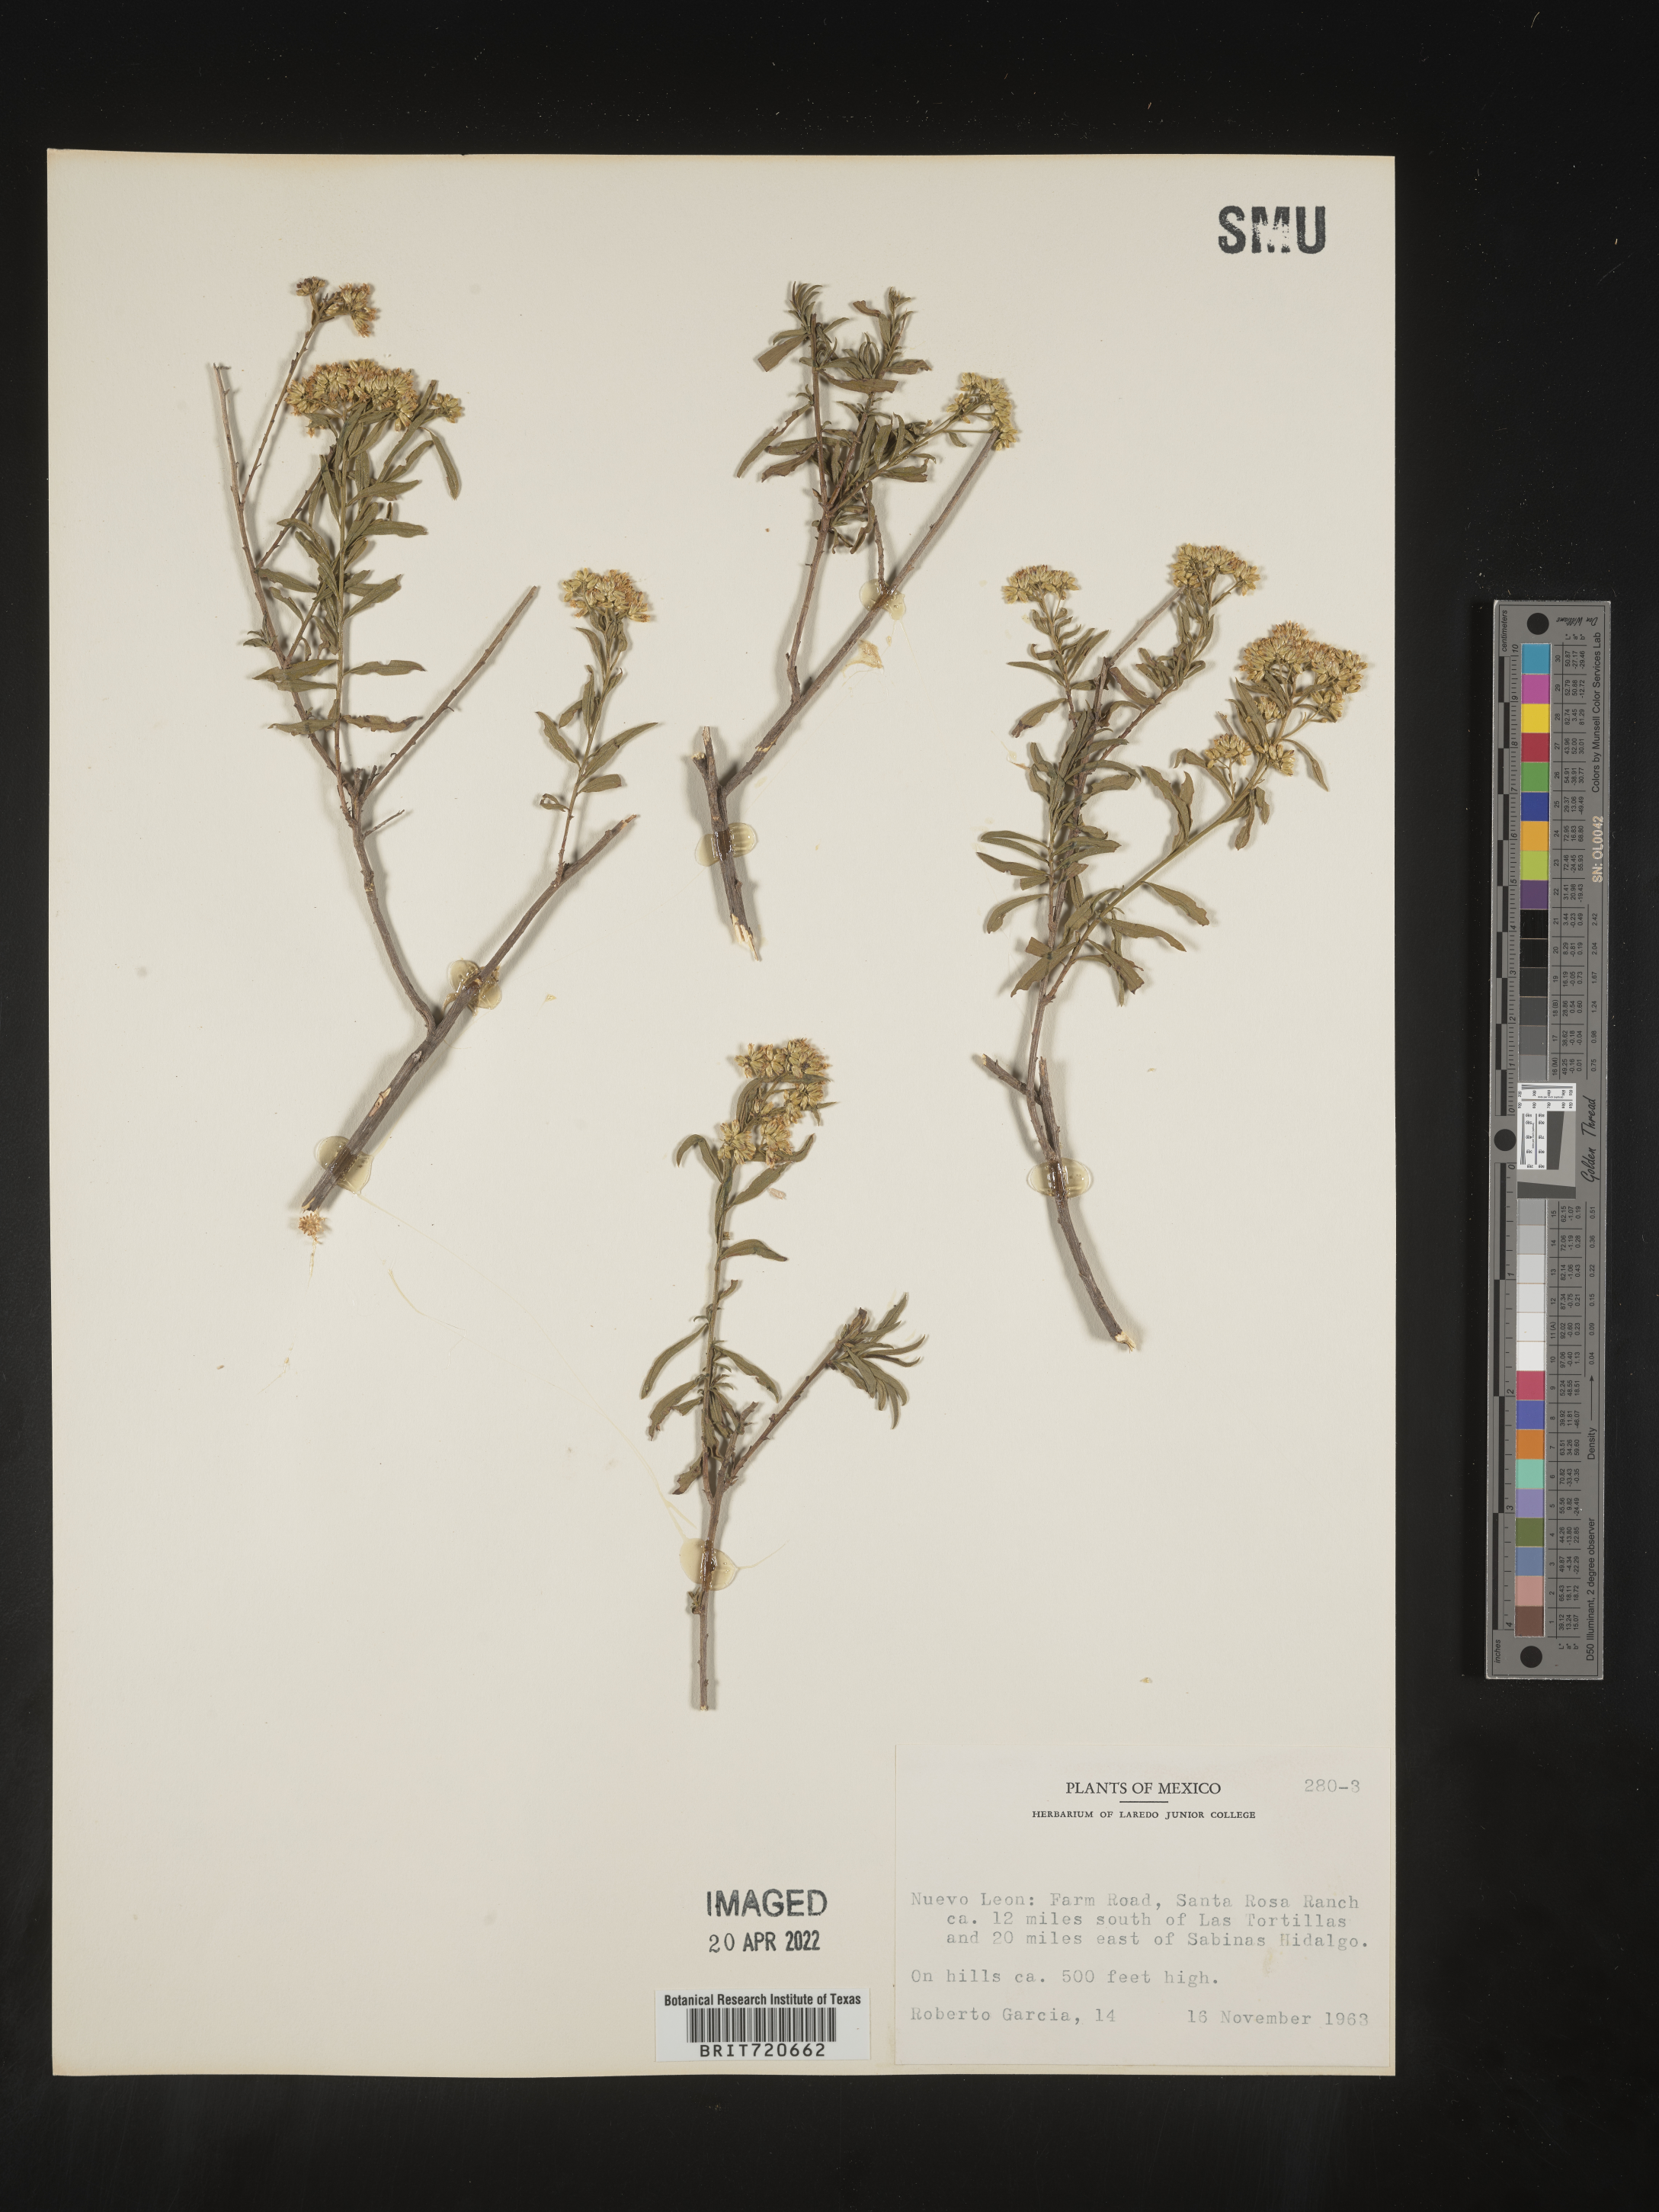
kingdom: Plantae
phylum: Tracheophyta
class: Magnoliopsida
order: Asterales
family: Asteraceae
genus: Gymnosperma
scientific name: Gymnosperma glutinosum
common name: Gumhead
